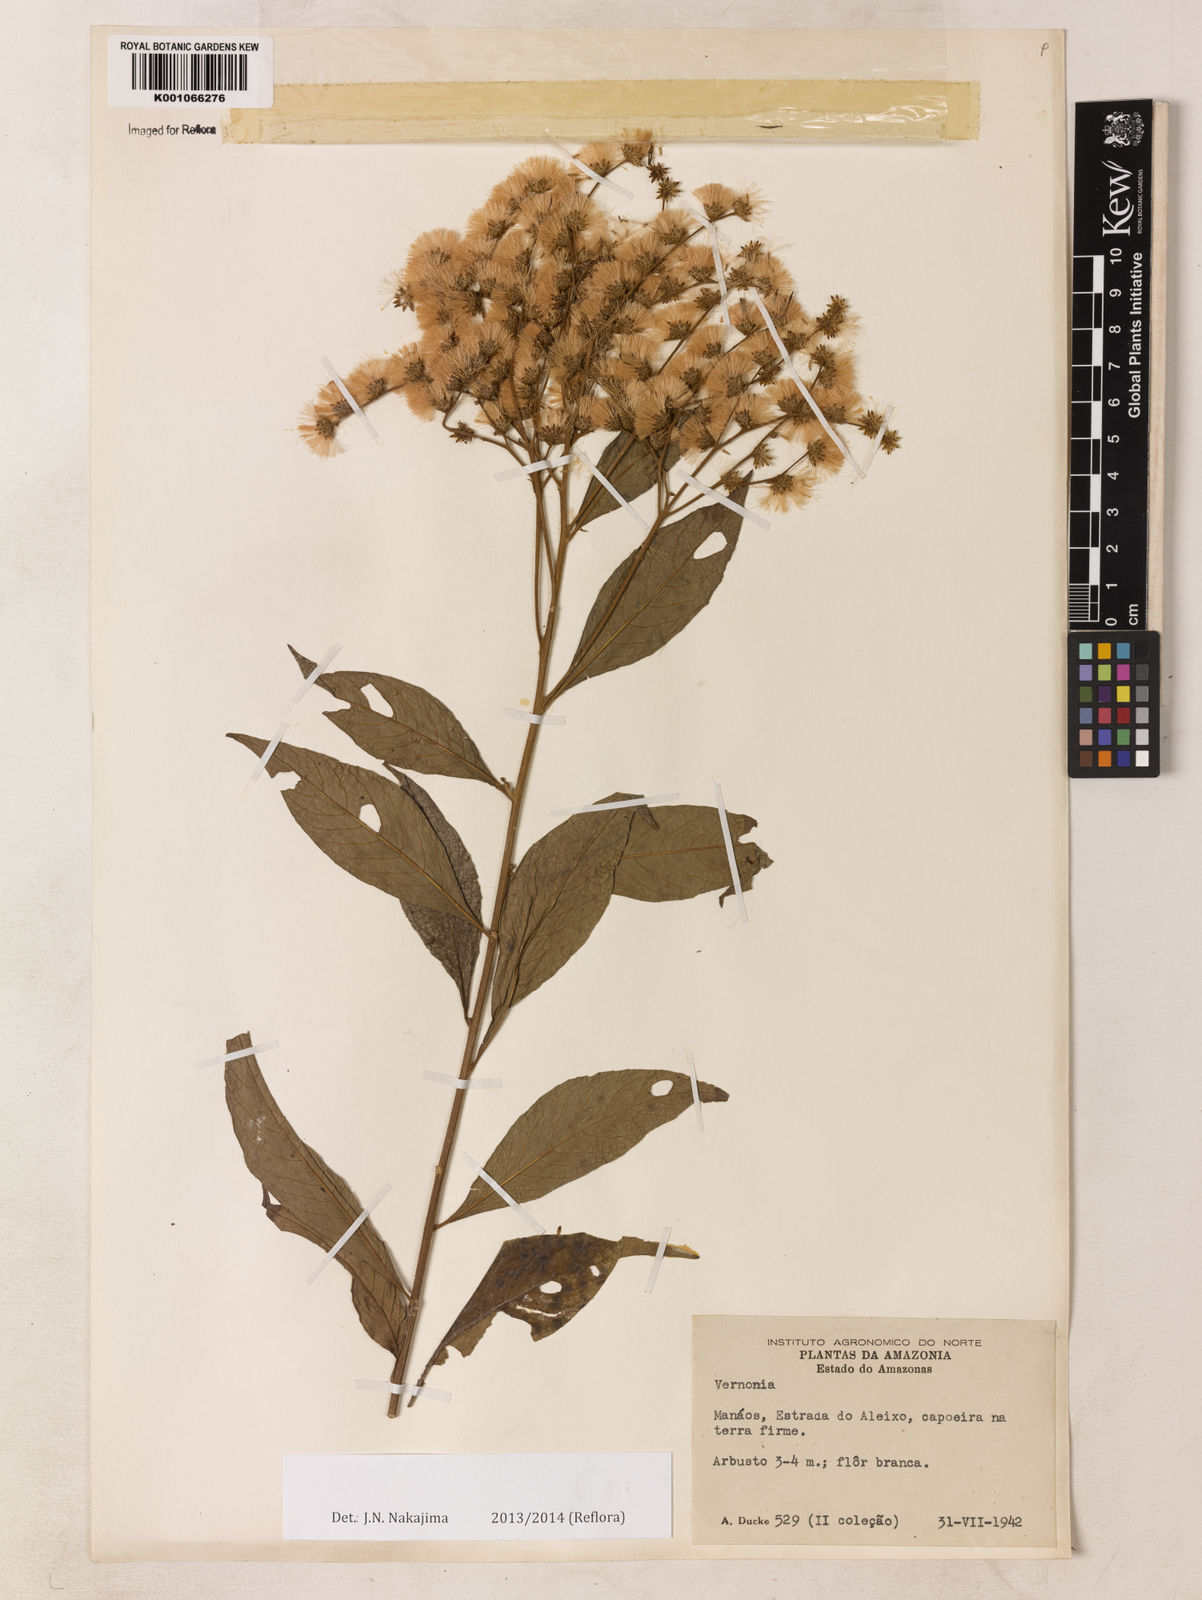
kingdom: Plantae
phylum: Tracheophyta
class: Magnoliopsida
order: Asterales
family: Asteraceae
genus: Vernonia
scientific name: Vernonia
